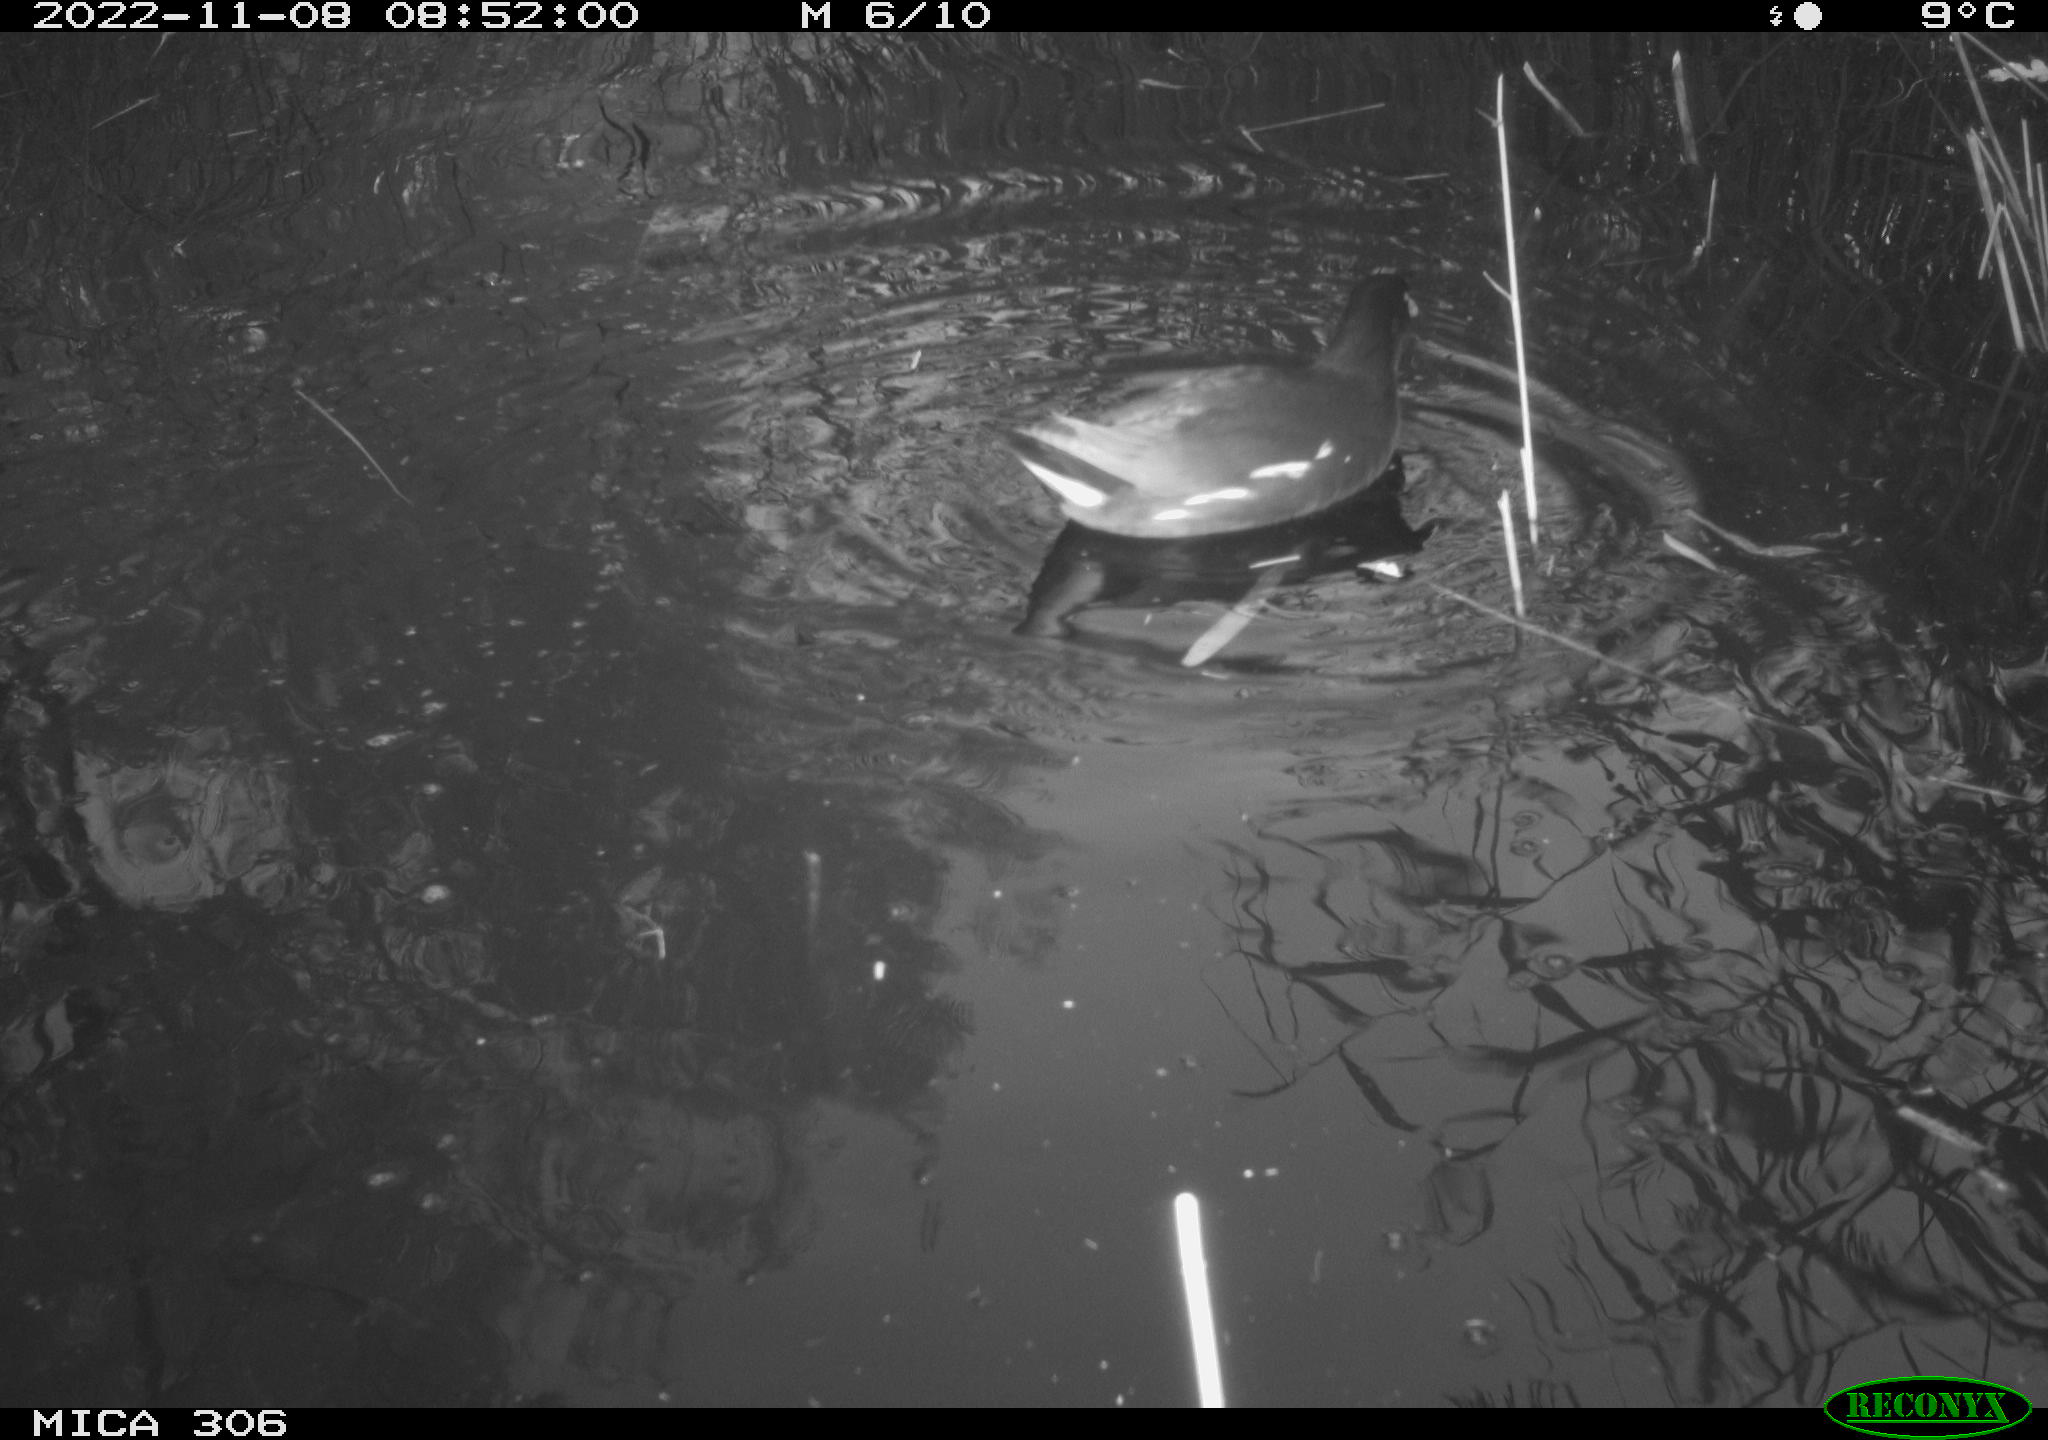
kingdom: Animalia
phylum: Chordata
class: Aves
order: Gruiformes
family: Rallidae
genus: Gallinula
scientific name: Gallinula chloropus
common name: Common moorhen
